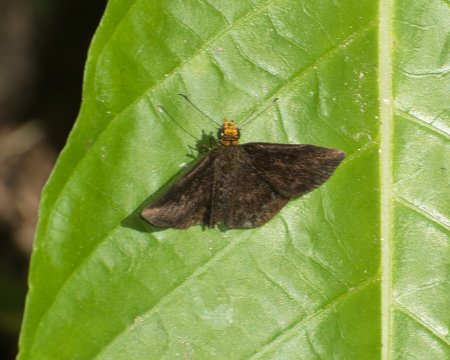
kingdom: Animalia
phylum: Arthropoda
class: Insecta
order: Lepidoptera
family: Hesperiidae
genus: Staphylus
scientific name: Staphylus vulgata
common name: Golden-snouted Sootywing
